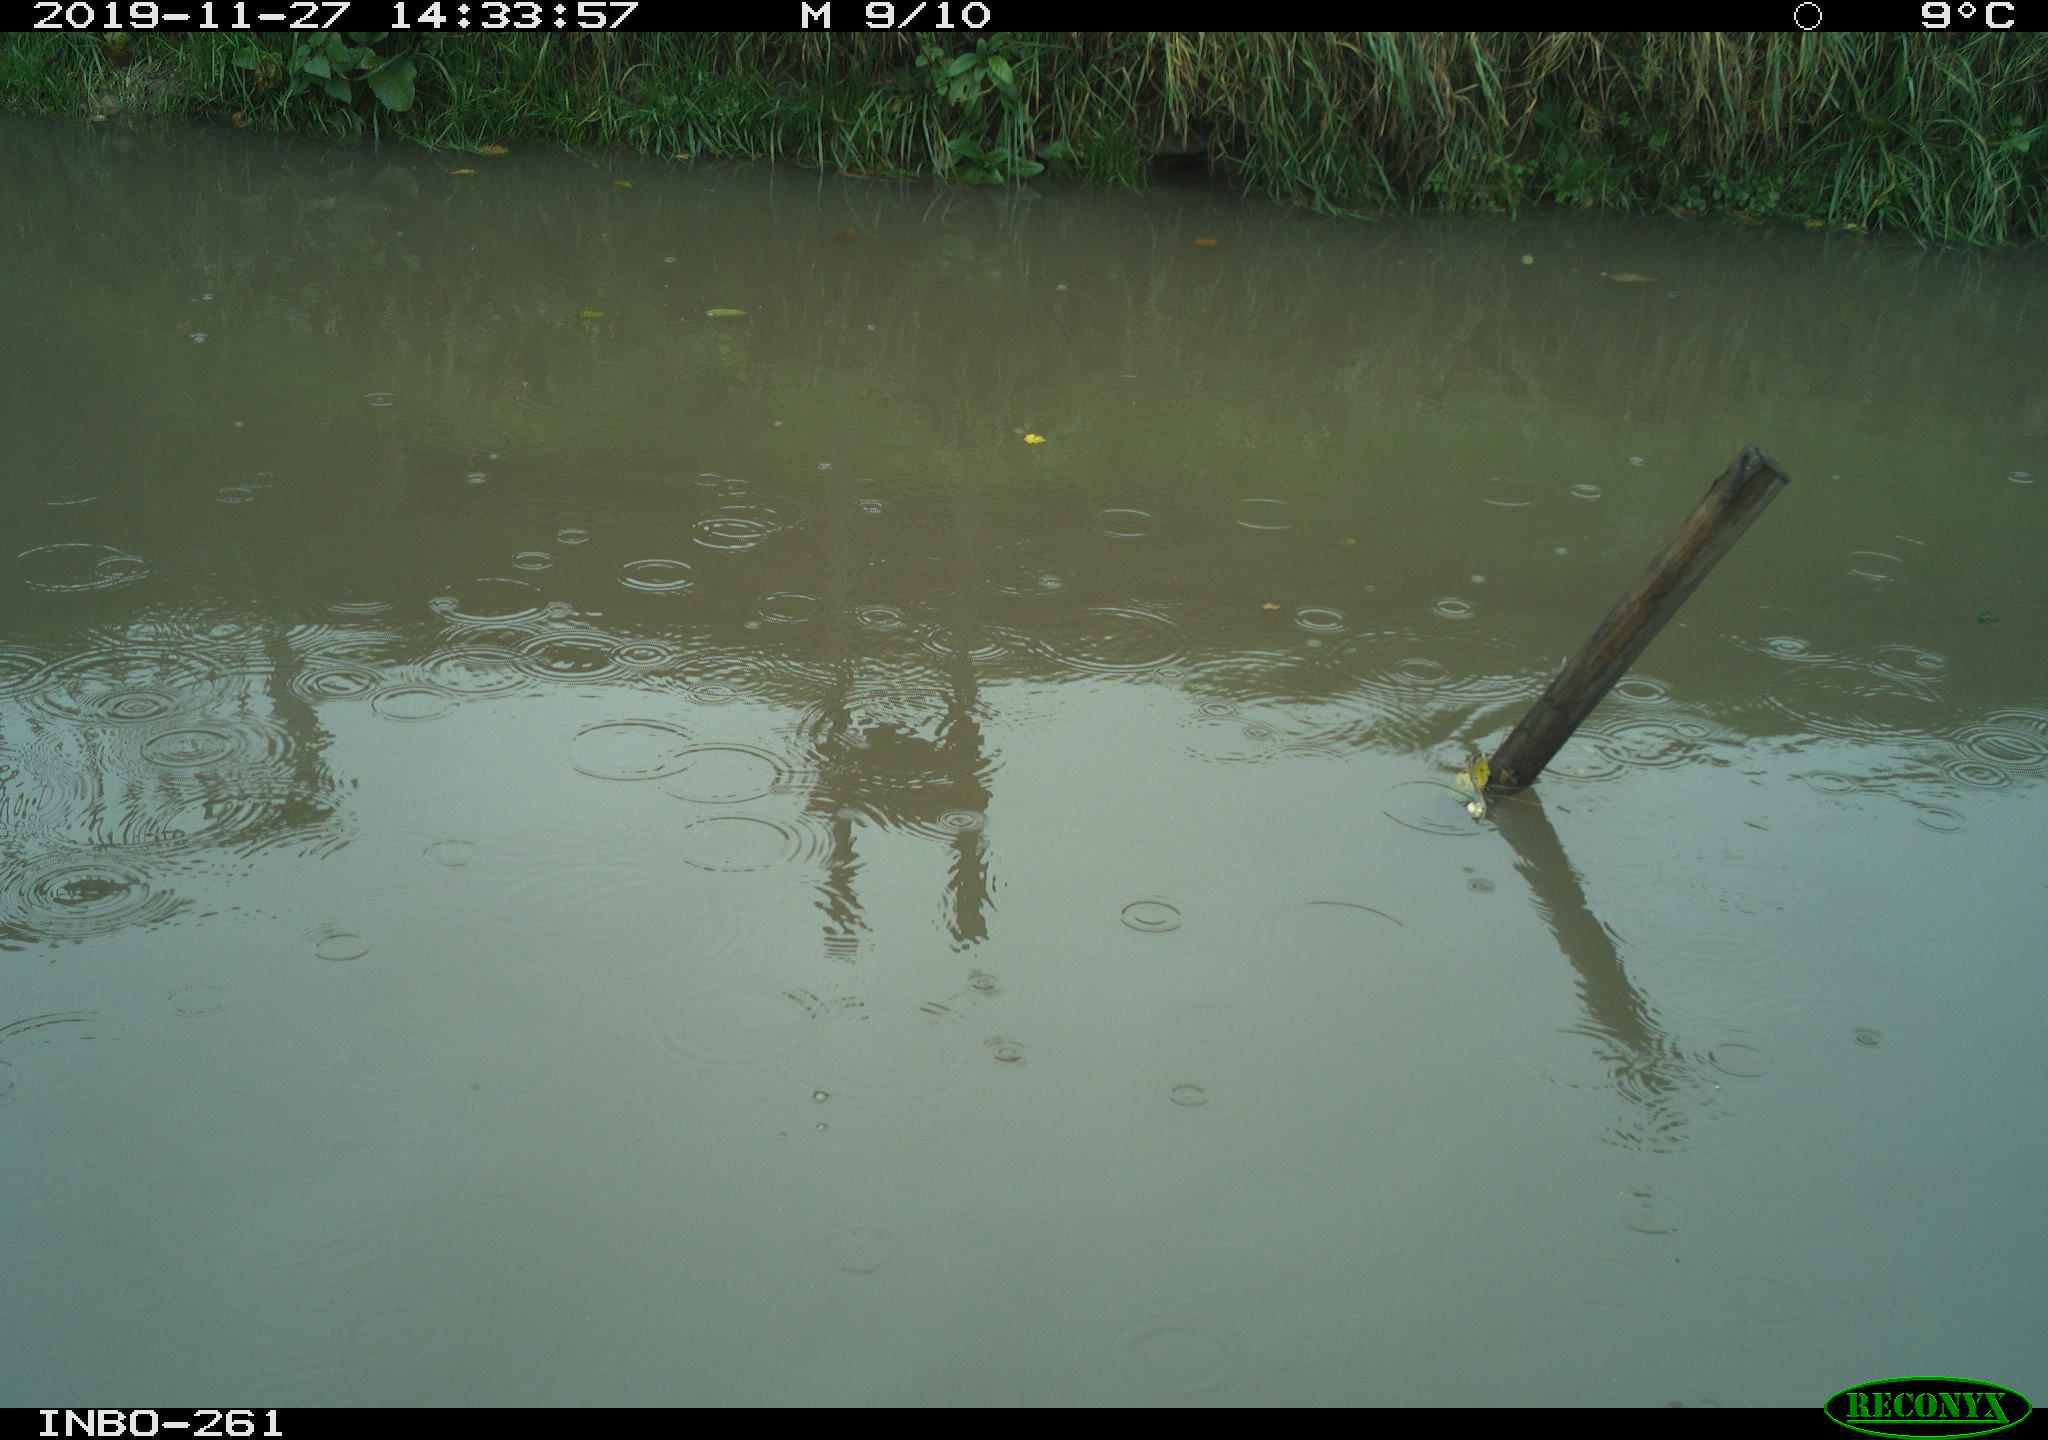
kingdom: Animalia
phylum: Chordata
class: Aves
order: Gruiformes
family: Rallidae
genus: Gallinula
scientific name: Gallinula chloropus
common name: Common moorhen
